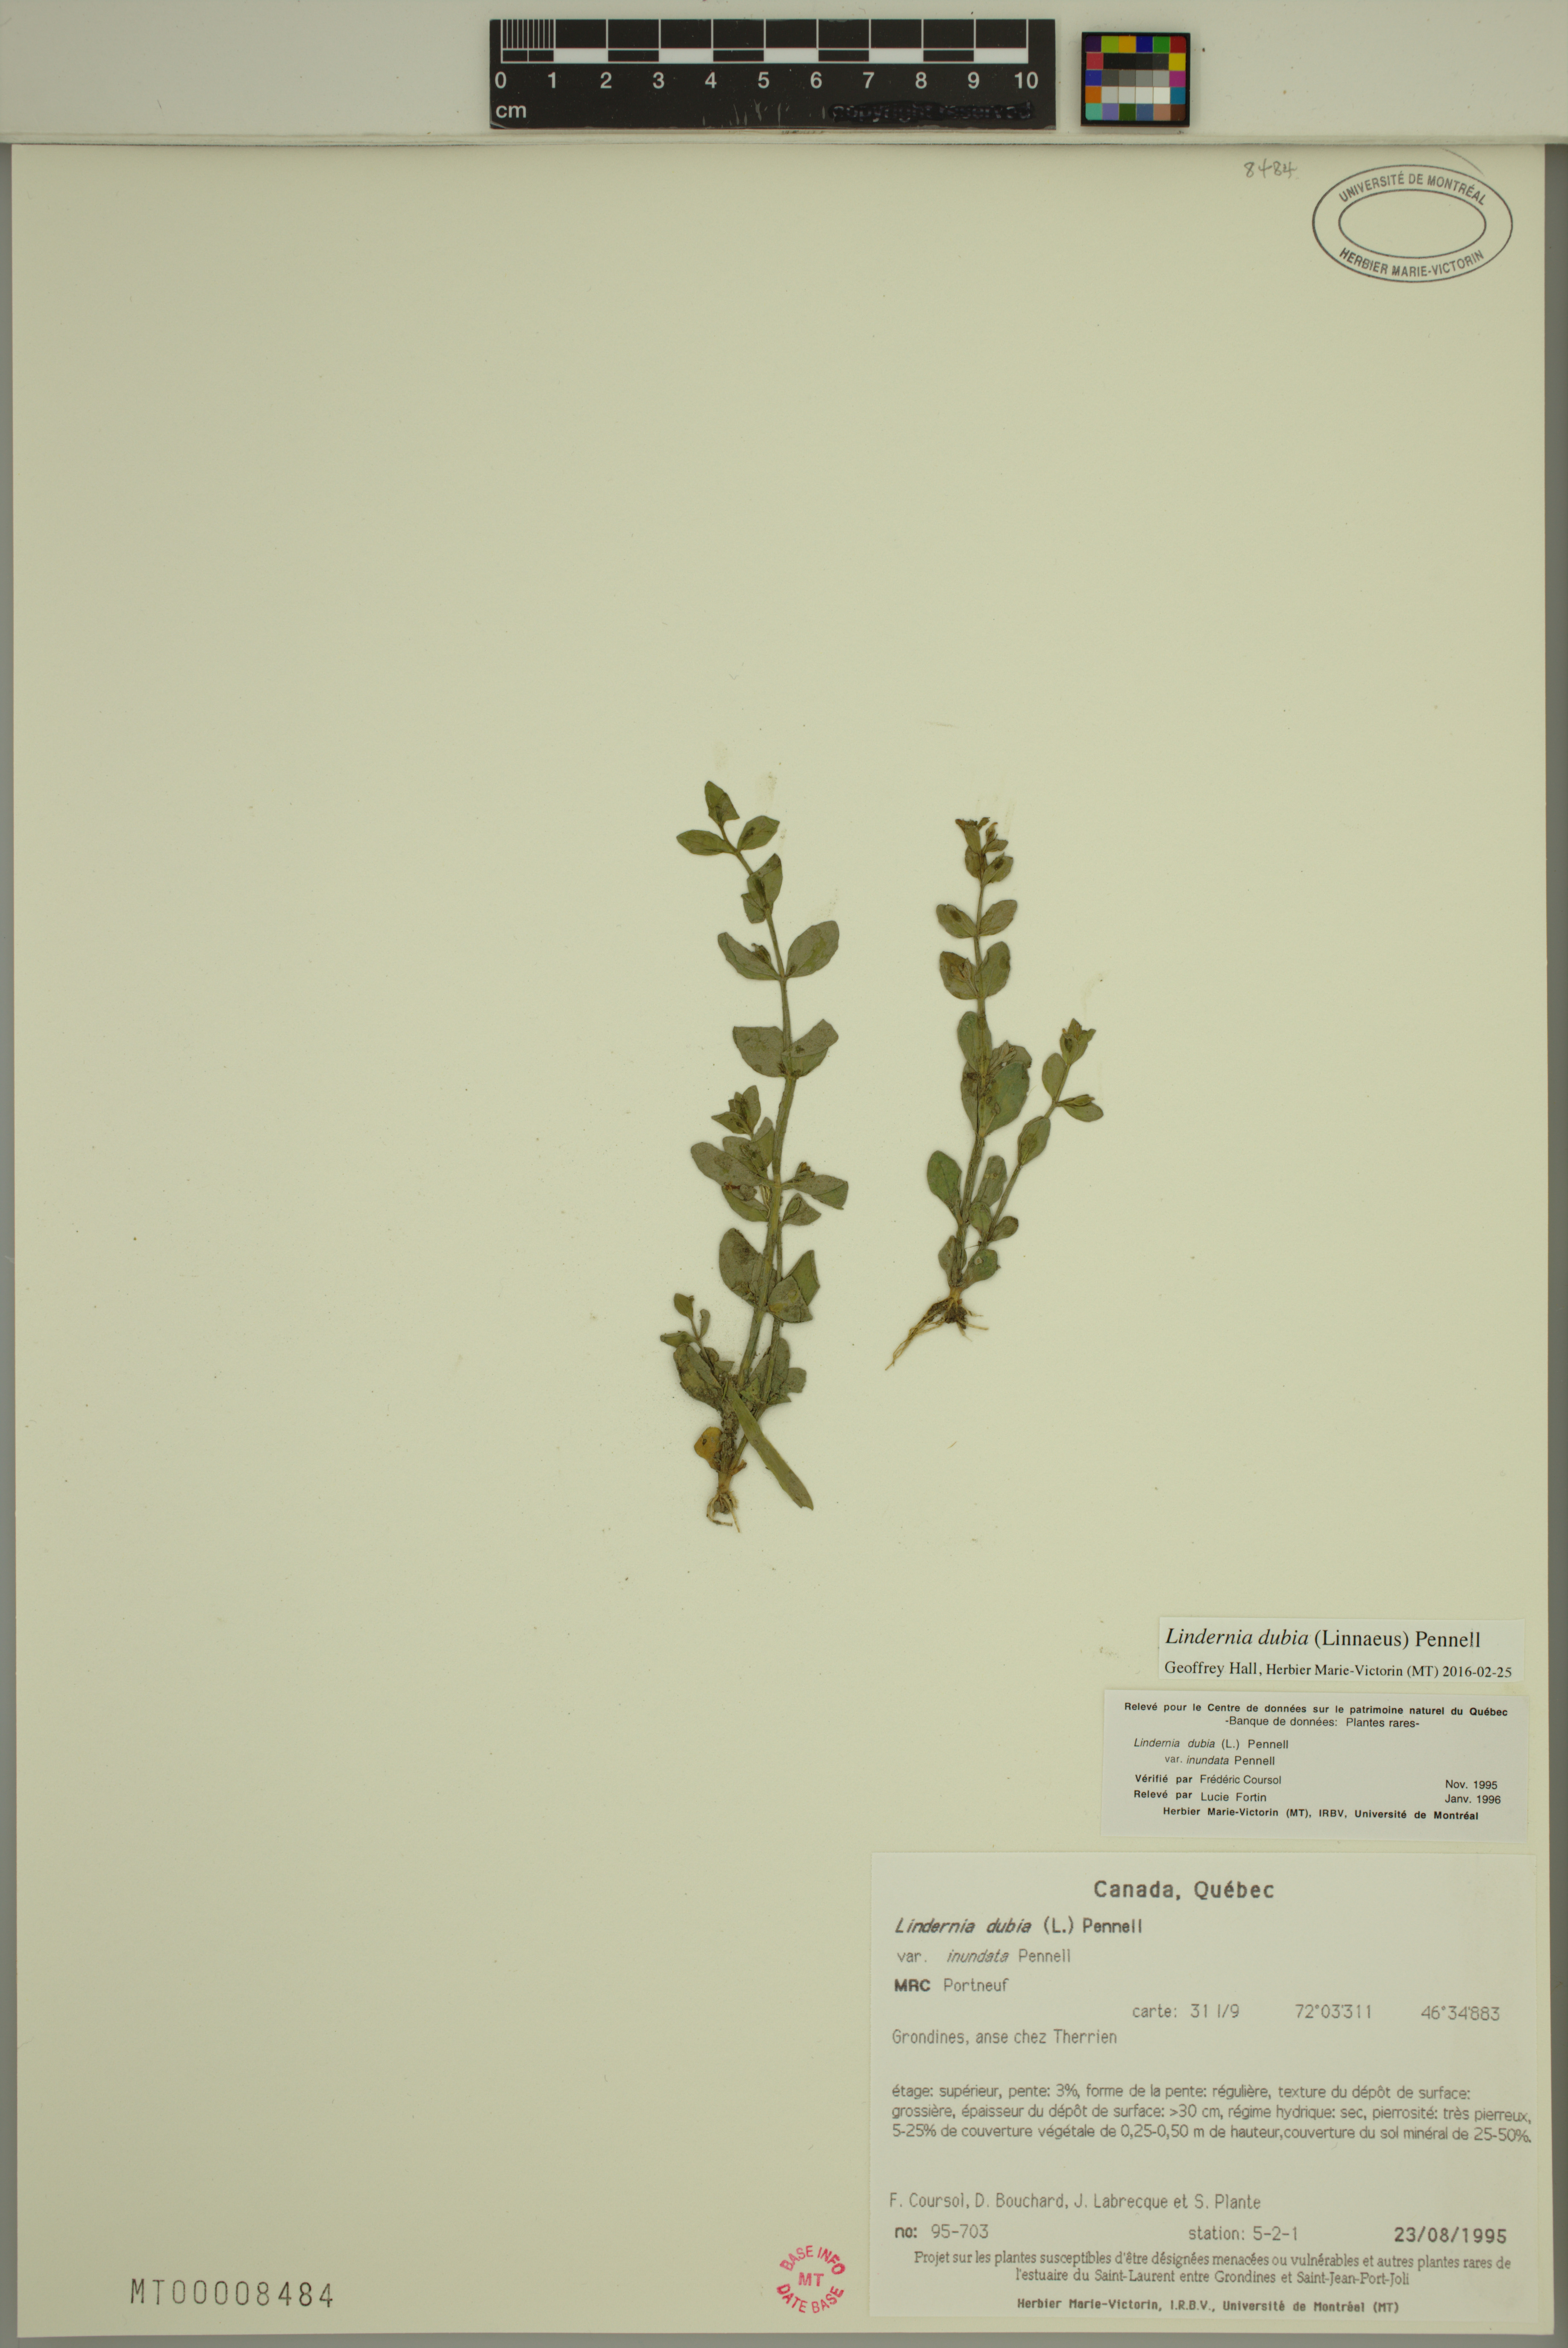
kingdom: Plantae
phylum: Tracheophyta
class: Magnoliopsida
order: Lamiales
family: Linderniaceae
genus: Lindernia
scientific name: Lindernia dubia
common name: Annual false pimpernel
